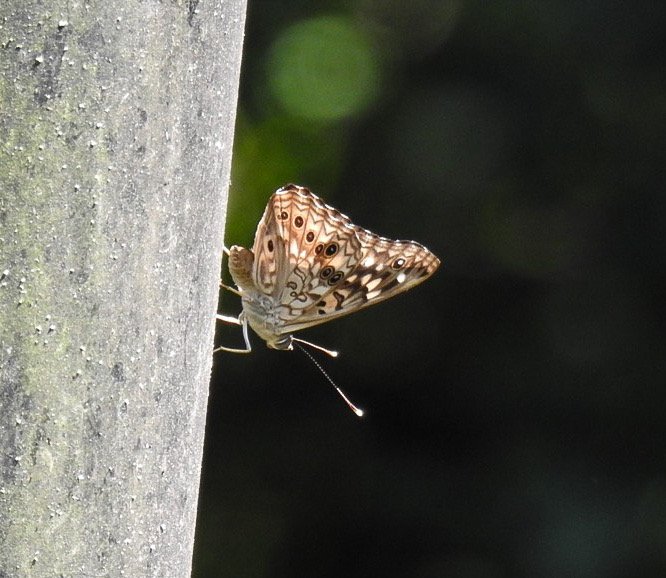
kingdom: Animalia
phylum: Arthropoda
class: Insecta
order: Lepidoptera
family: Nymphalidae
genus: Asterocampa
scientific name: Asterocampa celtis
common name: Hackberry Emperor
